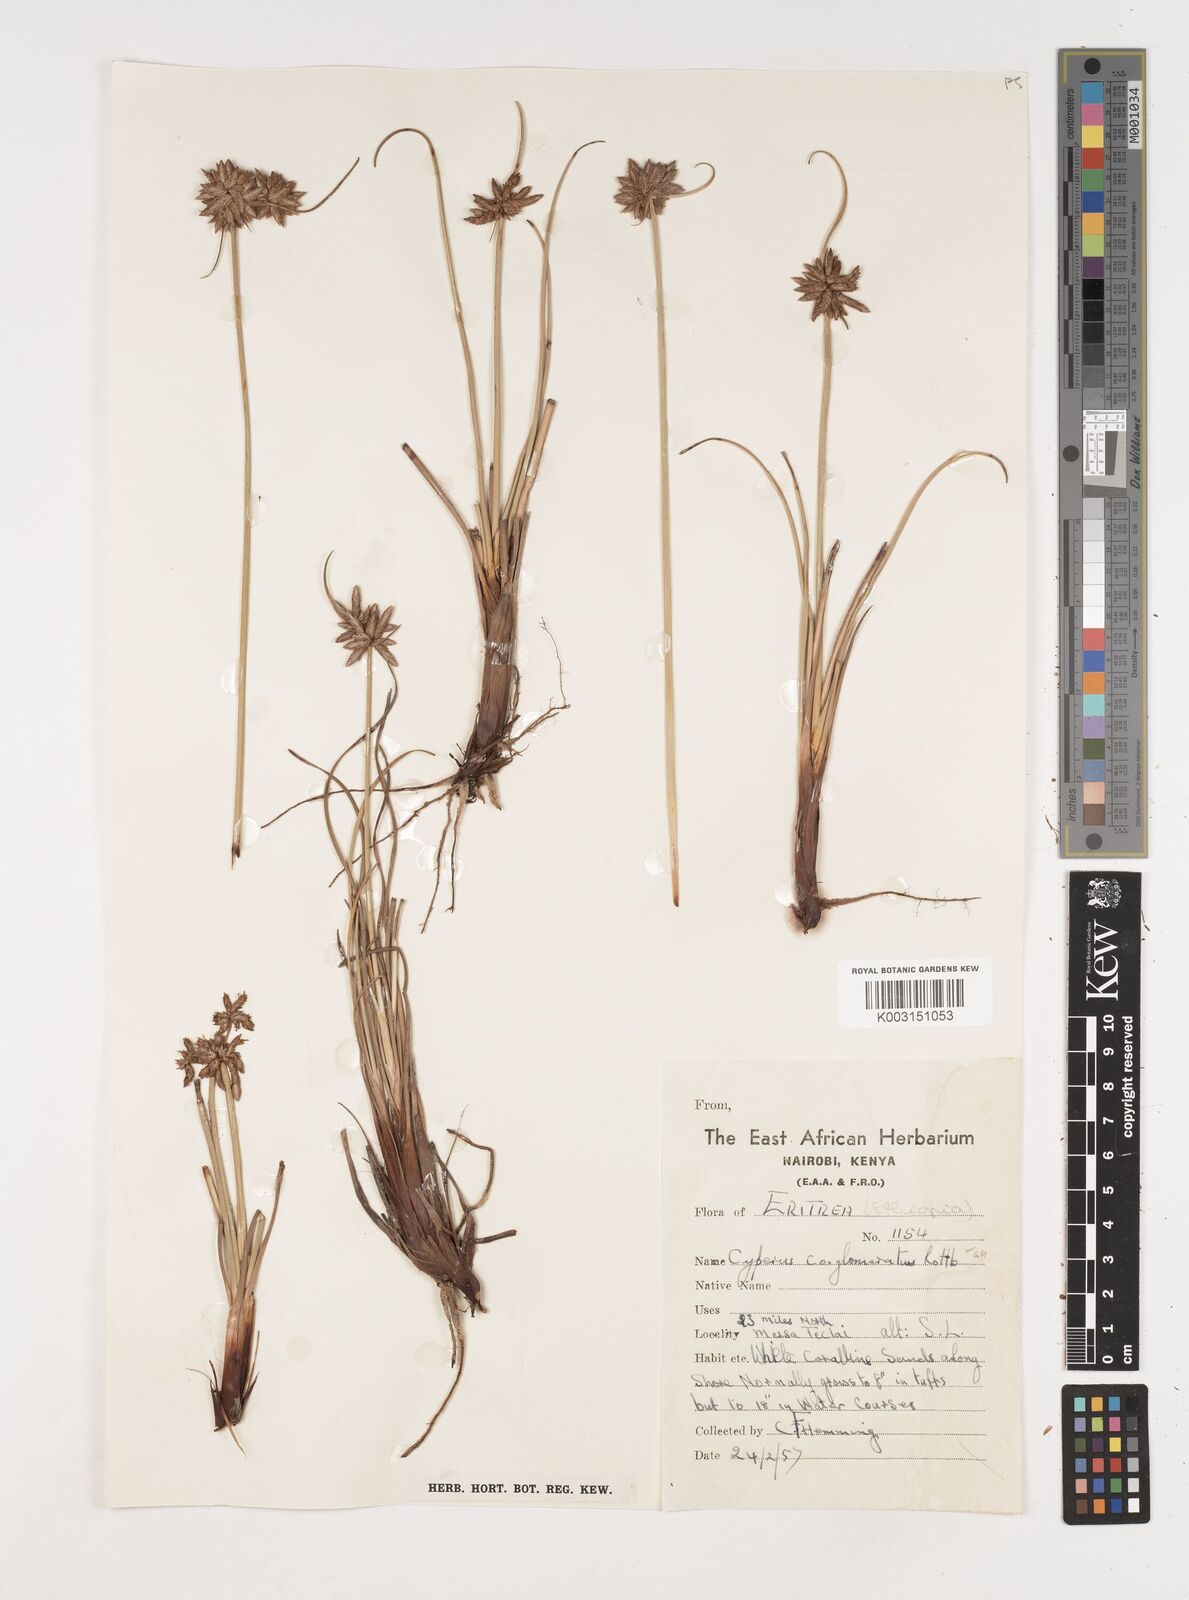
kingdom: Plantae
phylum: Tracheophyta
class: Liliopsida
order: Poales
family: Cyperaceae
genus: Cyperus
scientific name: Cyperus conglomeratus
